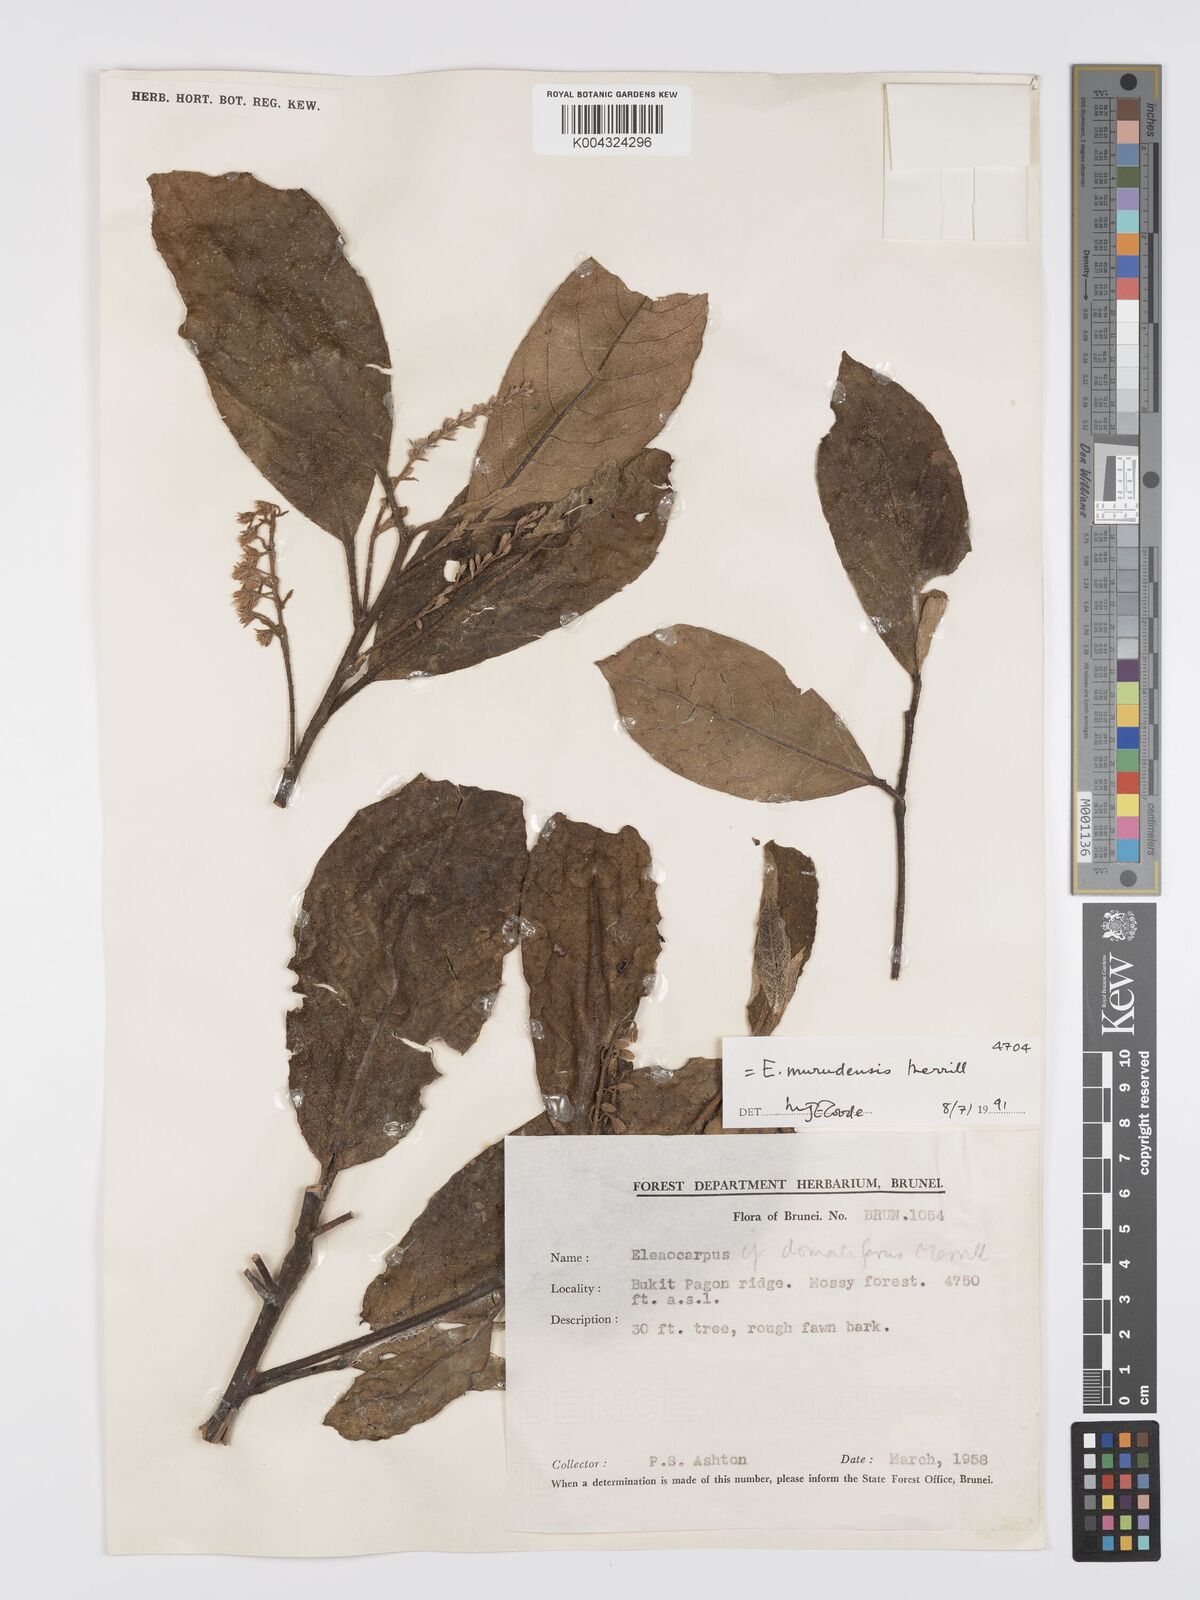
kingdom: Plantae
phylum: Tracheophyta
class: Magnoliopsida
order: Oxalidales
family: Elaeocarpaceae
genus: Elaeocarpus
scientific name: Elaeocarpus murudensis
